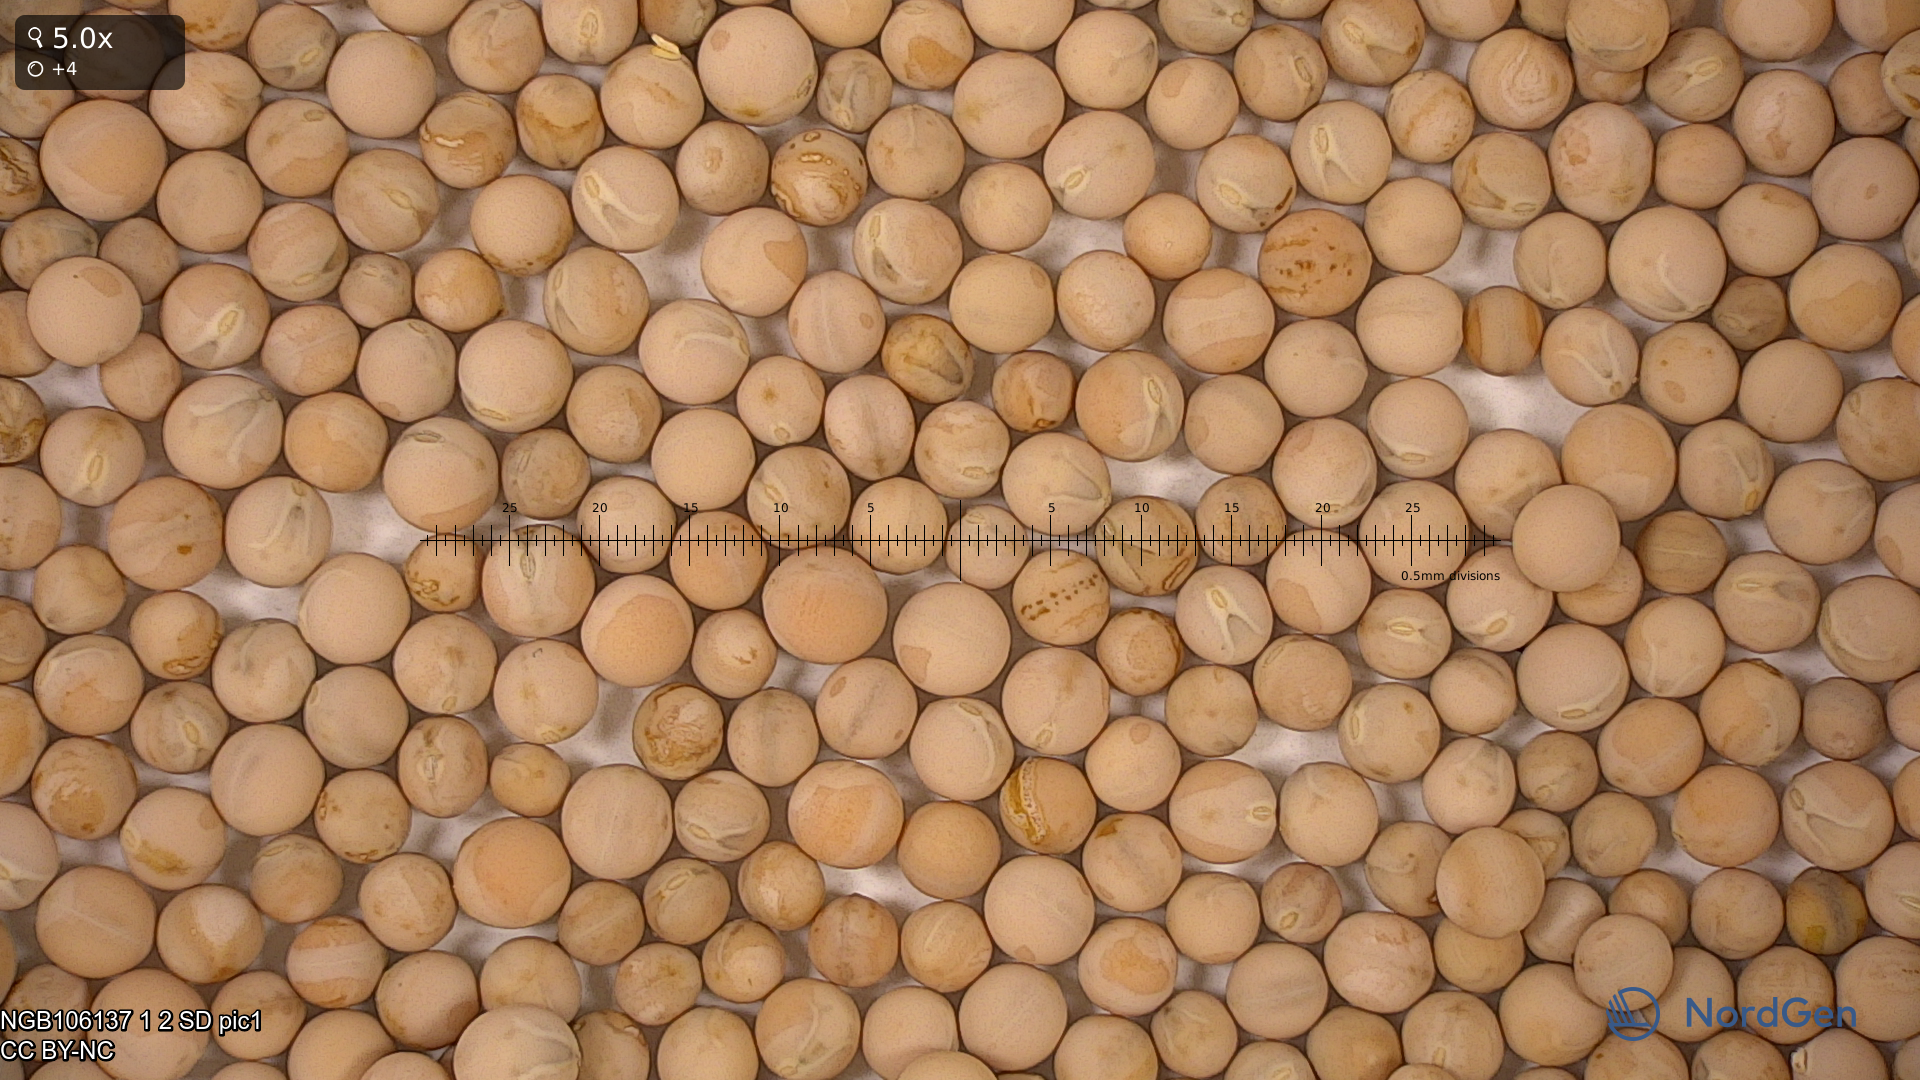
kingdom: Plantae
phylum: Tracheophyta
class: Magnoliopsida
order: Fabales
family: Fabaceae
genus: Lathyrus
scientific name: Lathyrus oleraceus
